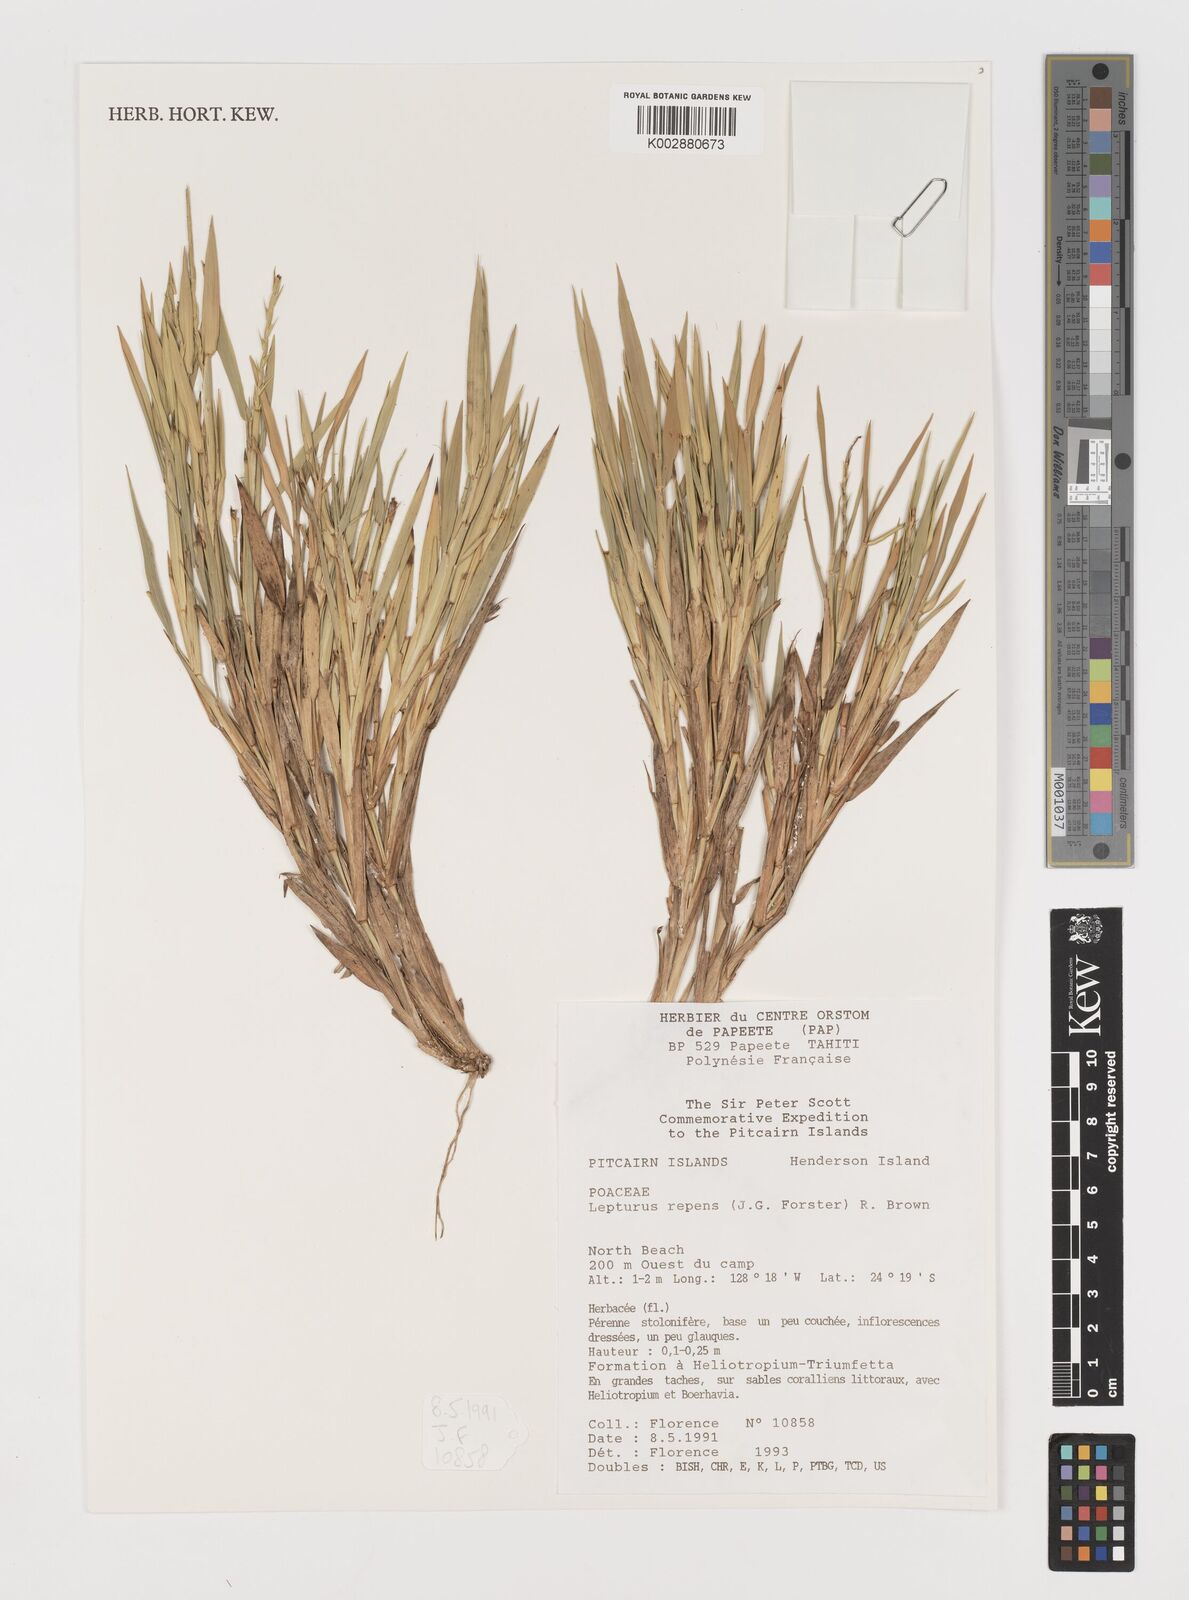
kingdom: Plantae
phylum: Tracheophyta
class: Liliopsida
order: Poales
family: Poaceae
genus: Lepturus
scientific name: Lepturus repens
